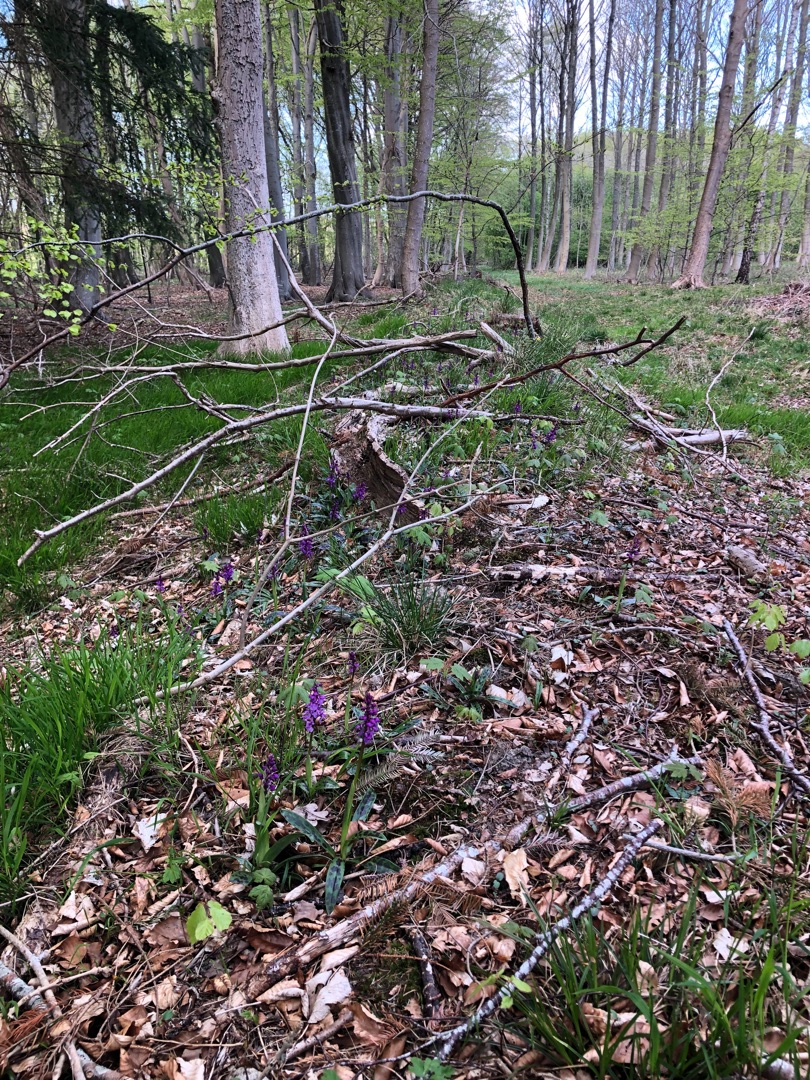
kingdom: Plantae
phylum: Tracheophyta
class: Liliopsida
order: Asparagales
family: Orchidaceae
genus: Orchis
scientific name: Orchis mascula
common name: Tyndakset gøgeurt
